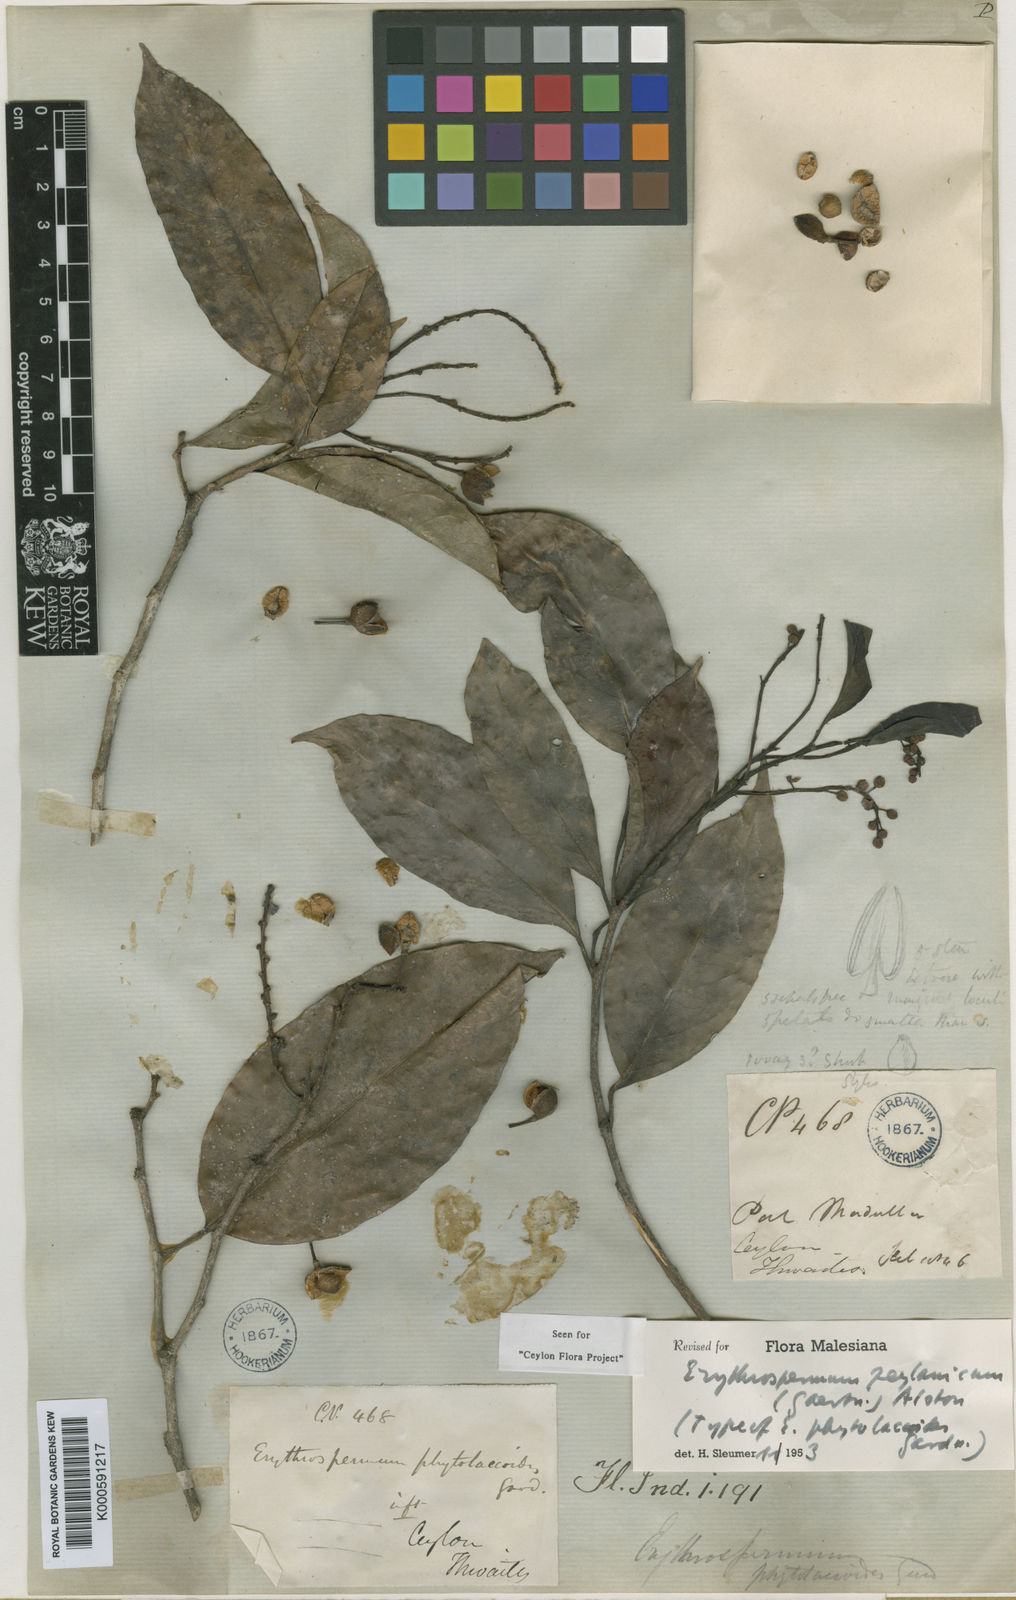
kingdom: Plantae
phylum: Tracheophyta
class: Magnoliopsida
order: Malpighiales
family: Achariaceae
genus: Erythrospermum
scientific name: Erythrospermum zeylanicum
